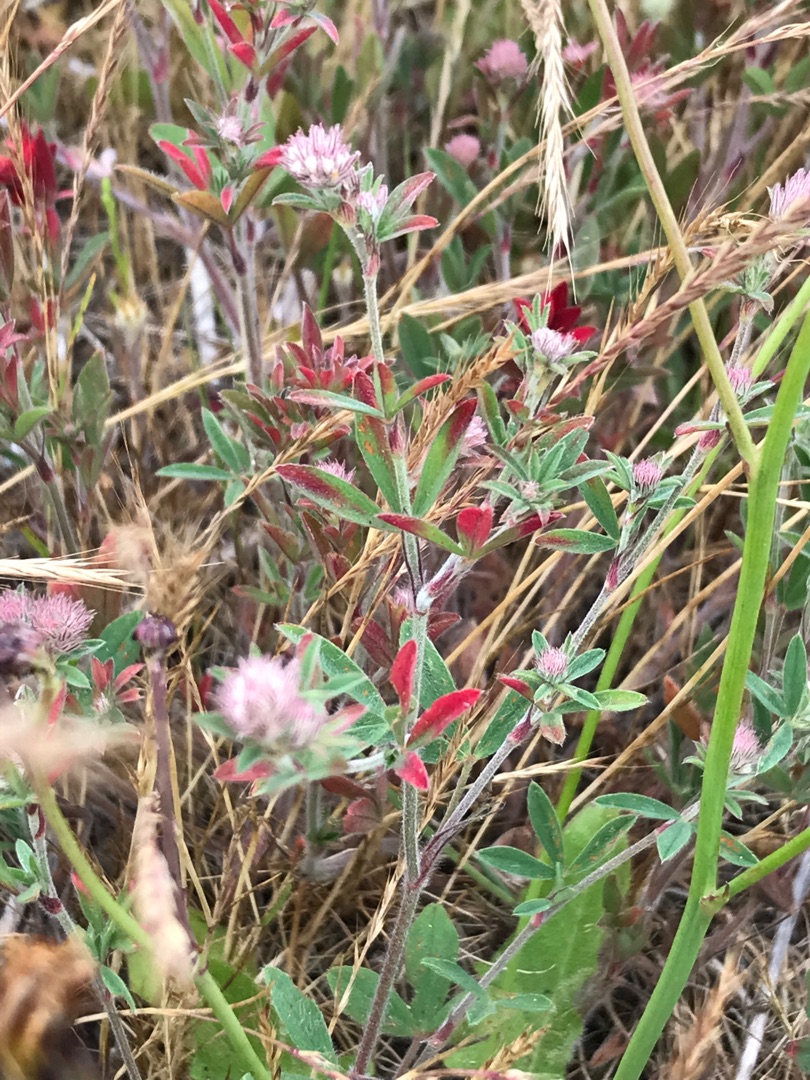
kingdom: Plantae
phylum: Tracheophyta
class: Magnoliopsida
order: Fabales
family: Fabaceae
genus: Trifolium
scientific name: Trifolium arvense
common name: Hare-kløver
